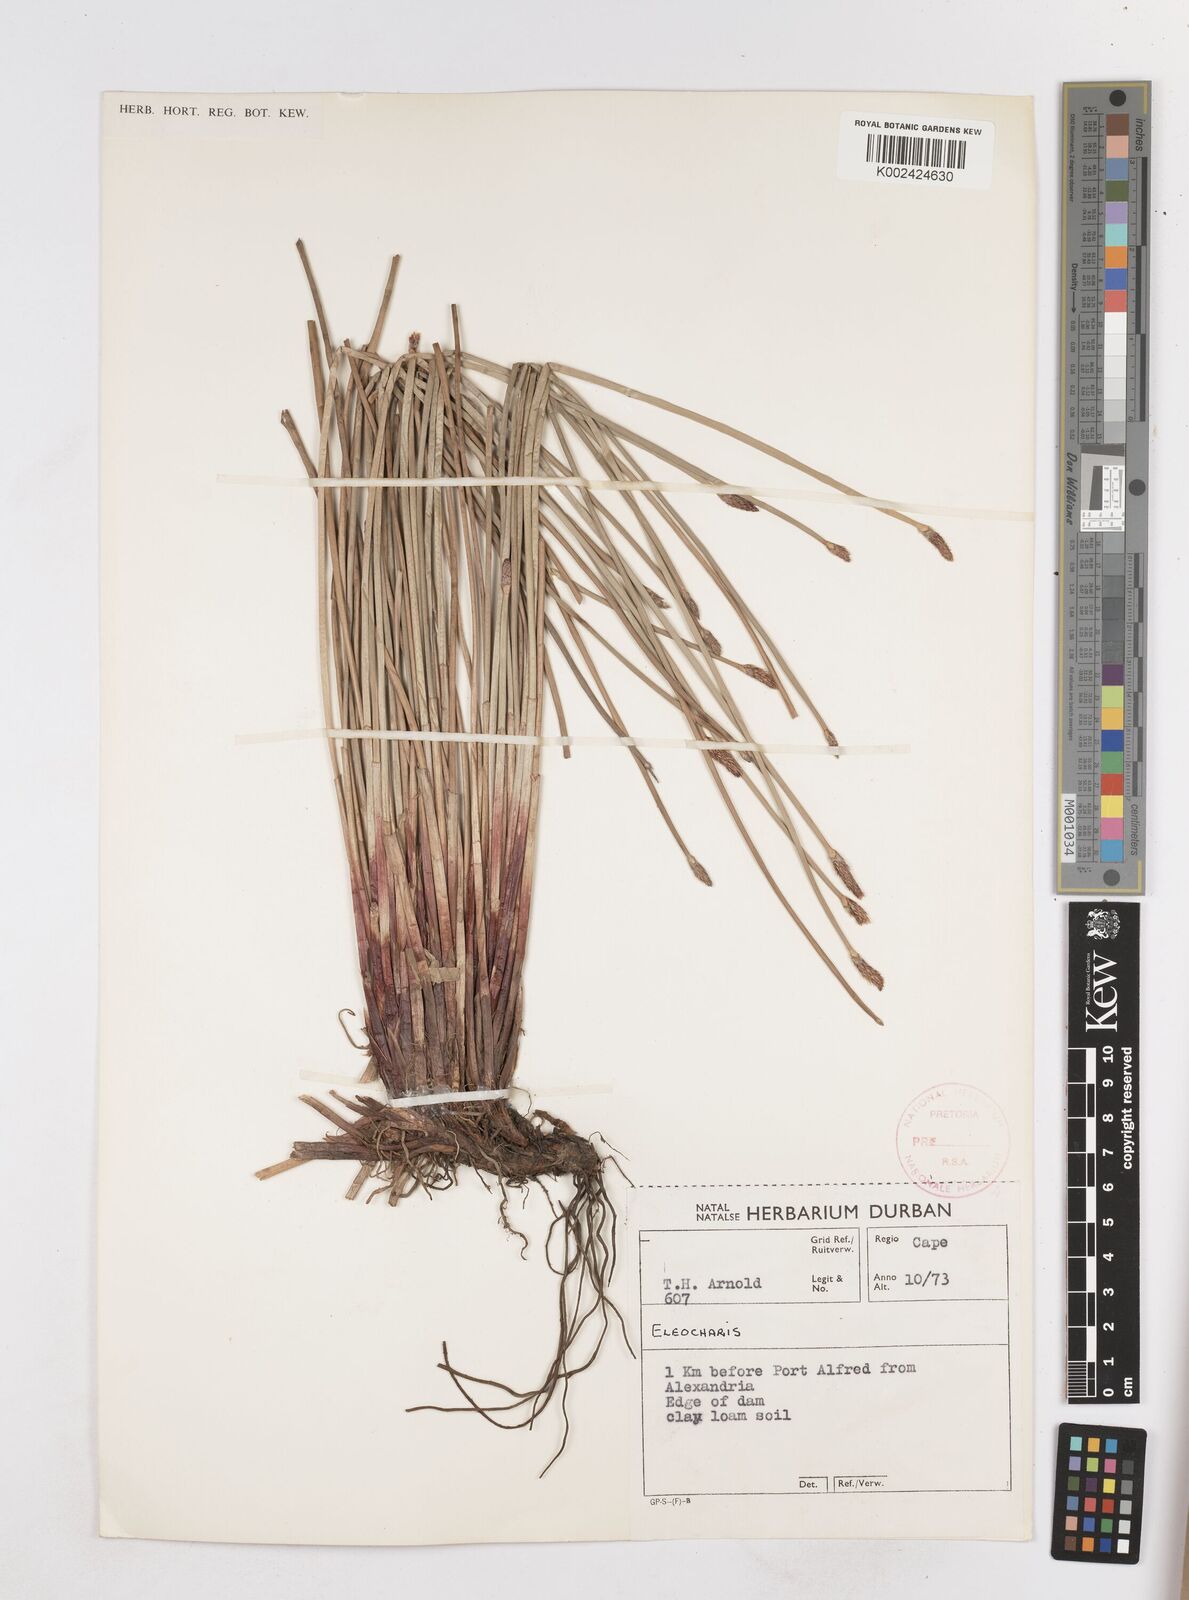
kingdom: Plantae
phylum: Tracheophyta
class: Liliopsida
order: Poales
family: Cyperaceae
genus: Eleocharis
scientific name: Eleocharis
